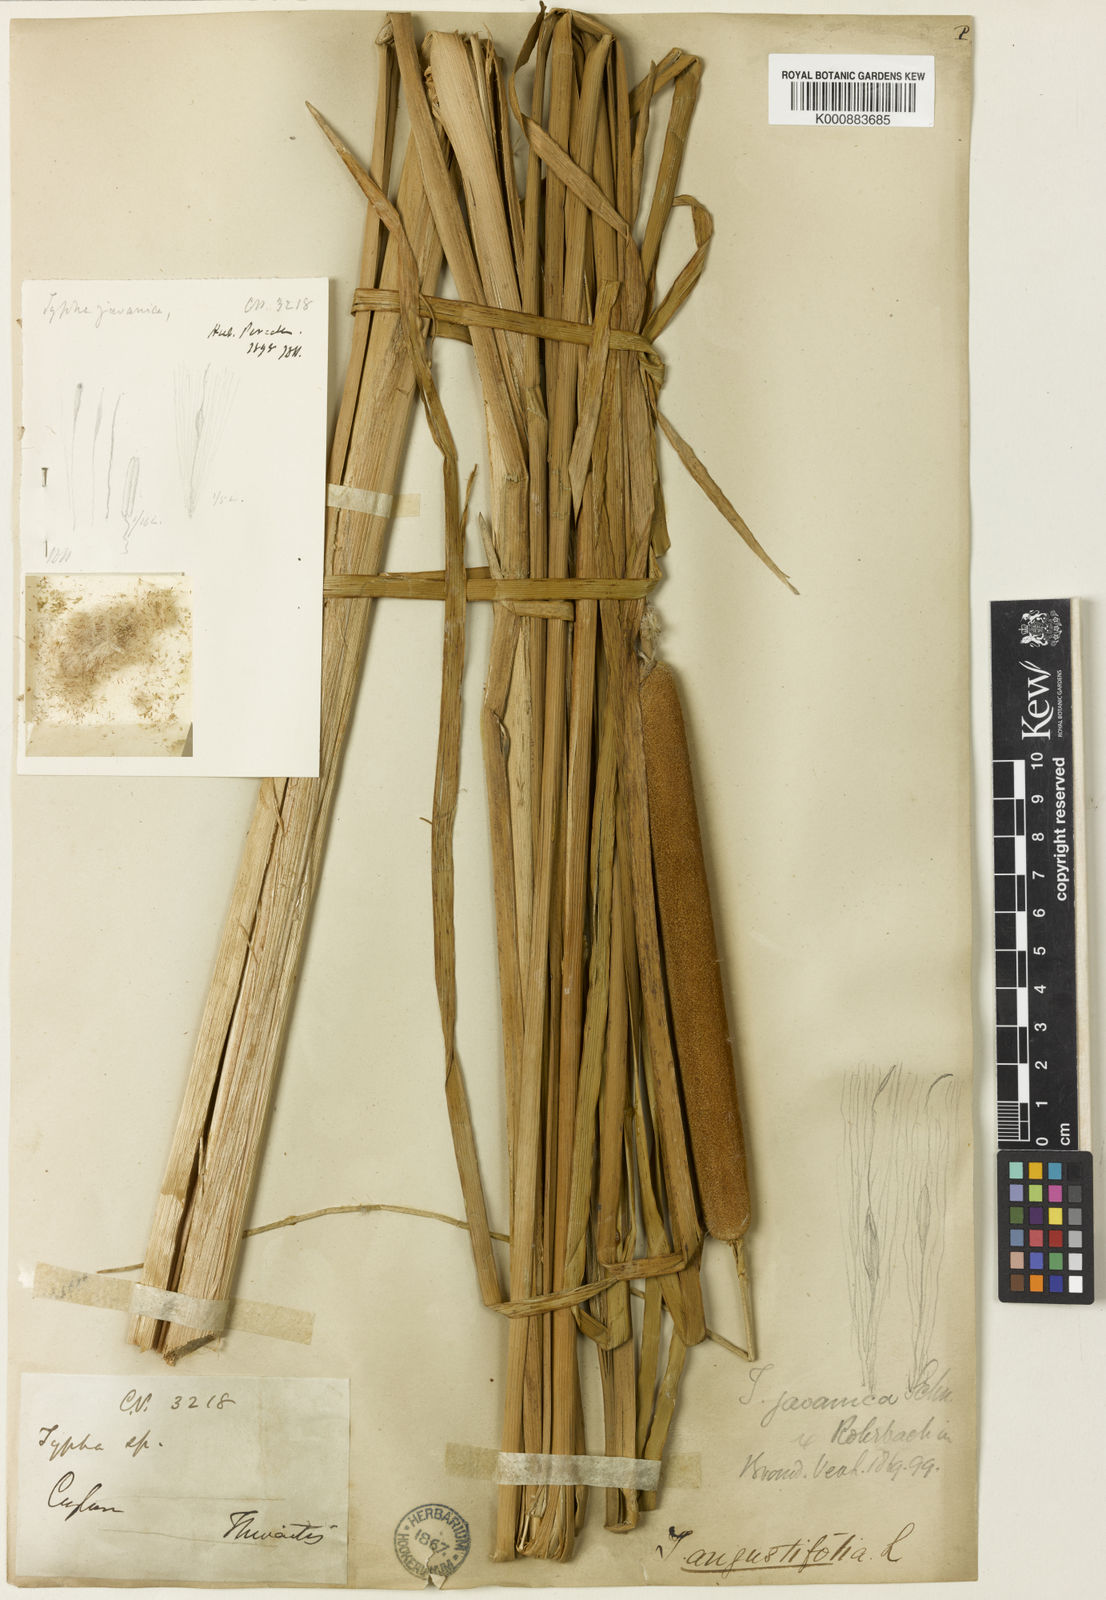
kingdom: Plantae
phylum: Tracheophyta
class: Liliopsida
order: Poales
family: Typhaceae
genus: Typha
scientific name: Typha domingensis
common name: Southern cattail
